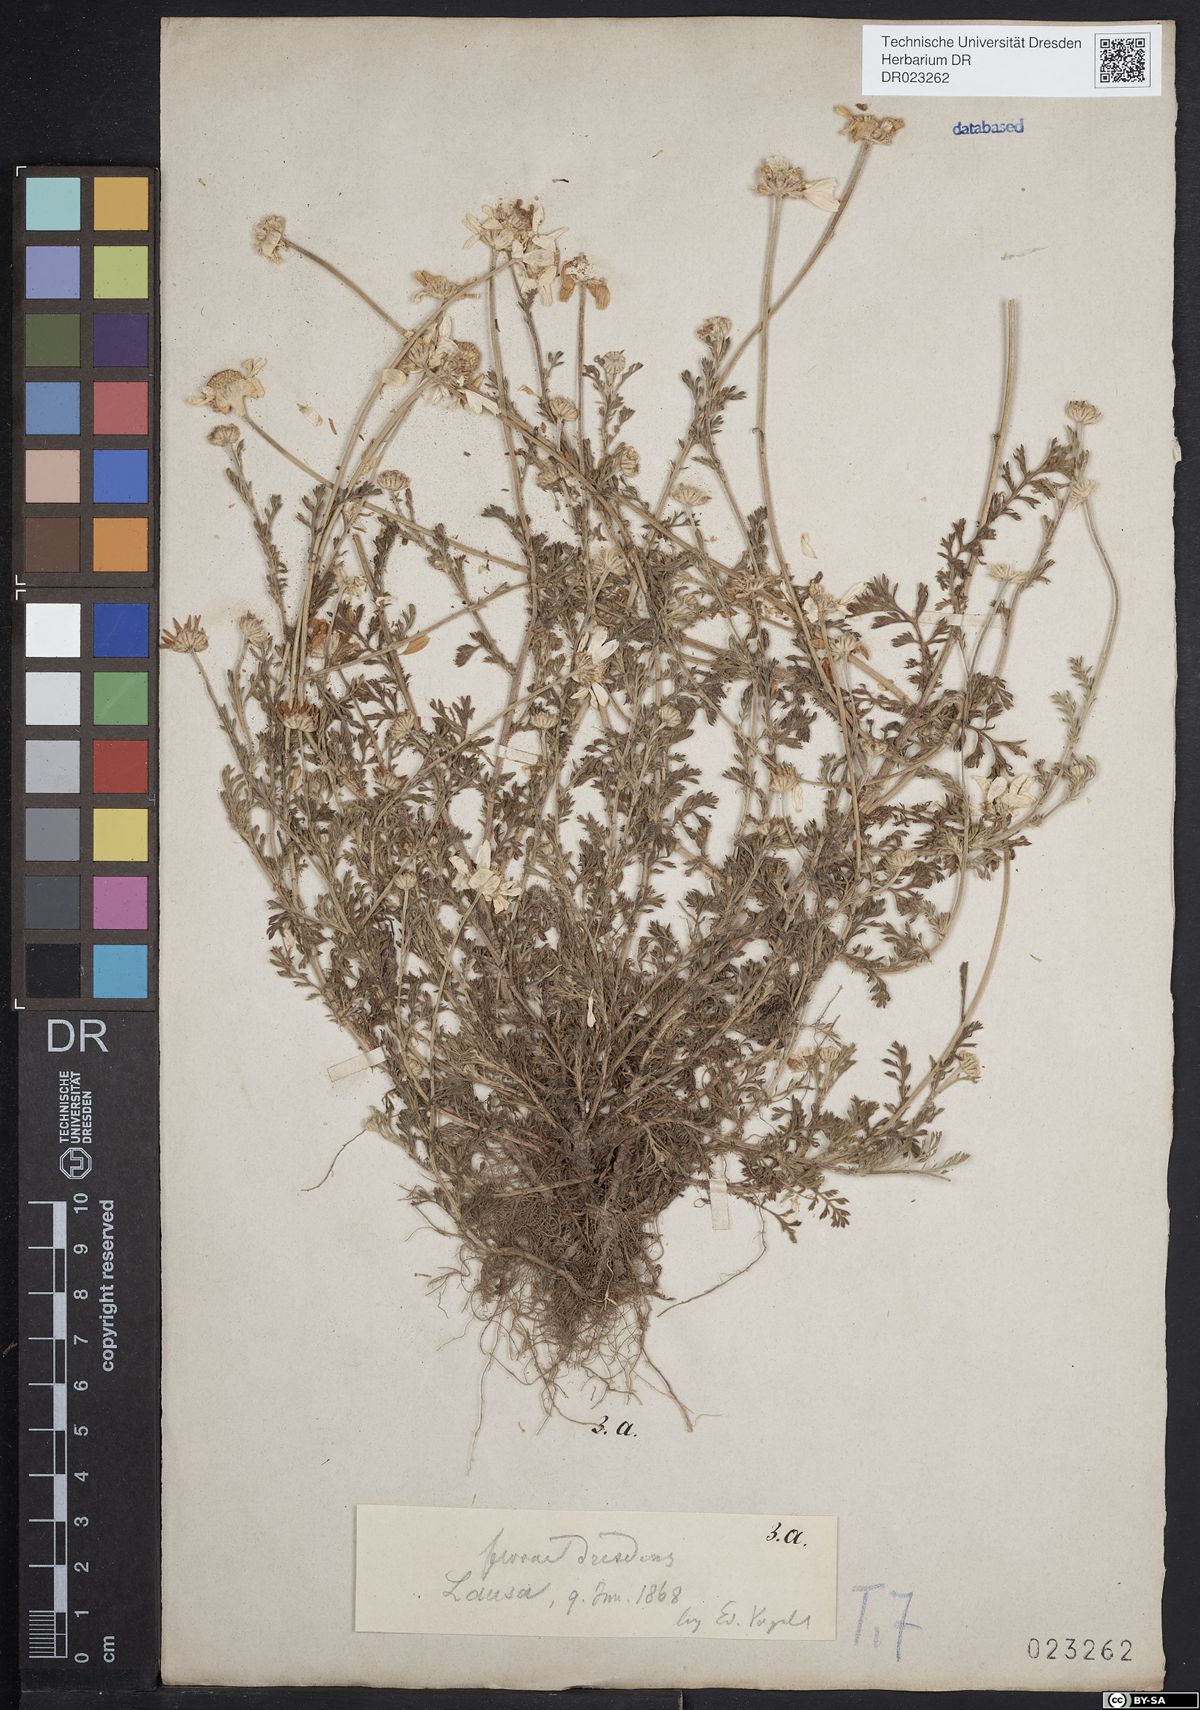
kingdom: Plantae
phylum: Tracheophyta
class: Magnoliopsida
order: Asterales
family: Asteraceae
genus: Anthemis
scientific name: Anthemis arvensis
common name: Corn chamomile
